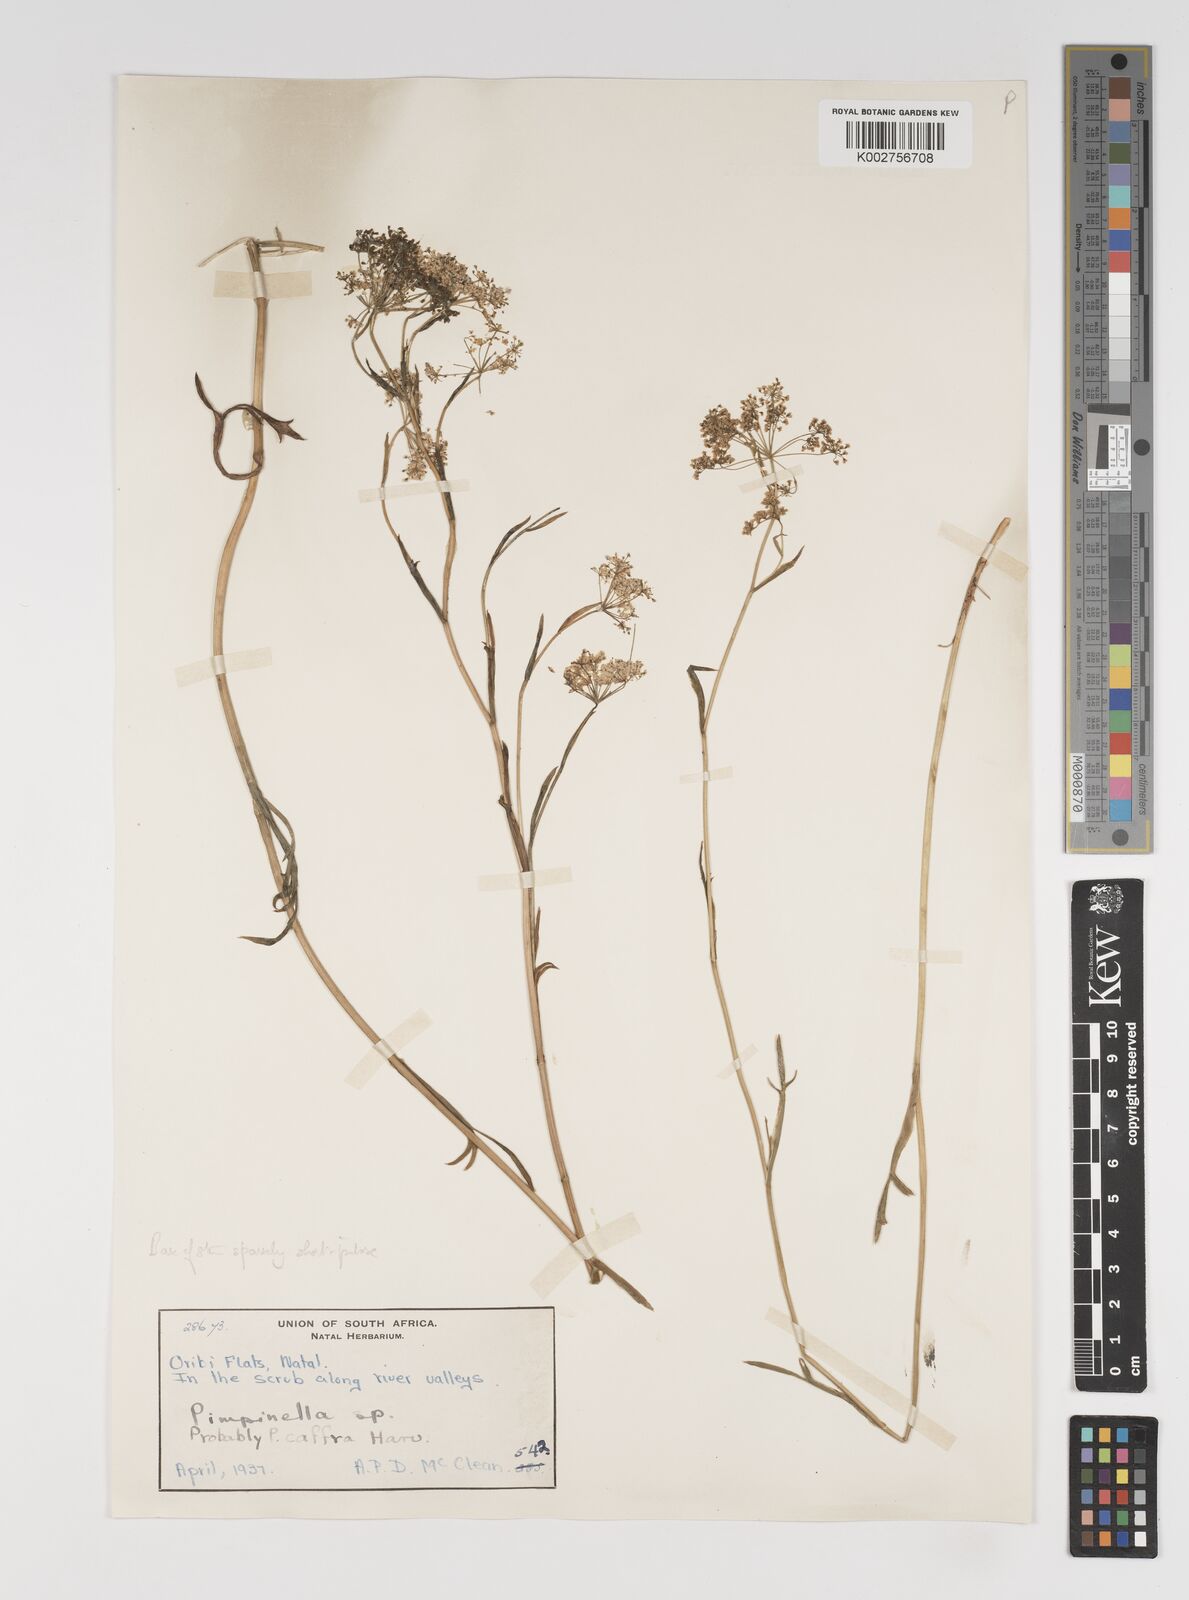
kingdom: Plantae
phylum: Tracheophyta
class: Magnoliopsida
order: Apiales
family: Apiaceae
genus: Pimpinella
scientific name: Pimpinella
